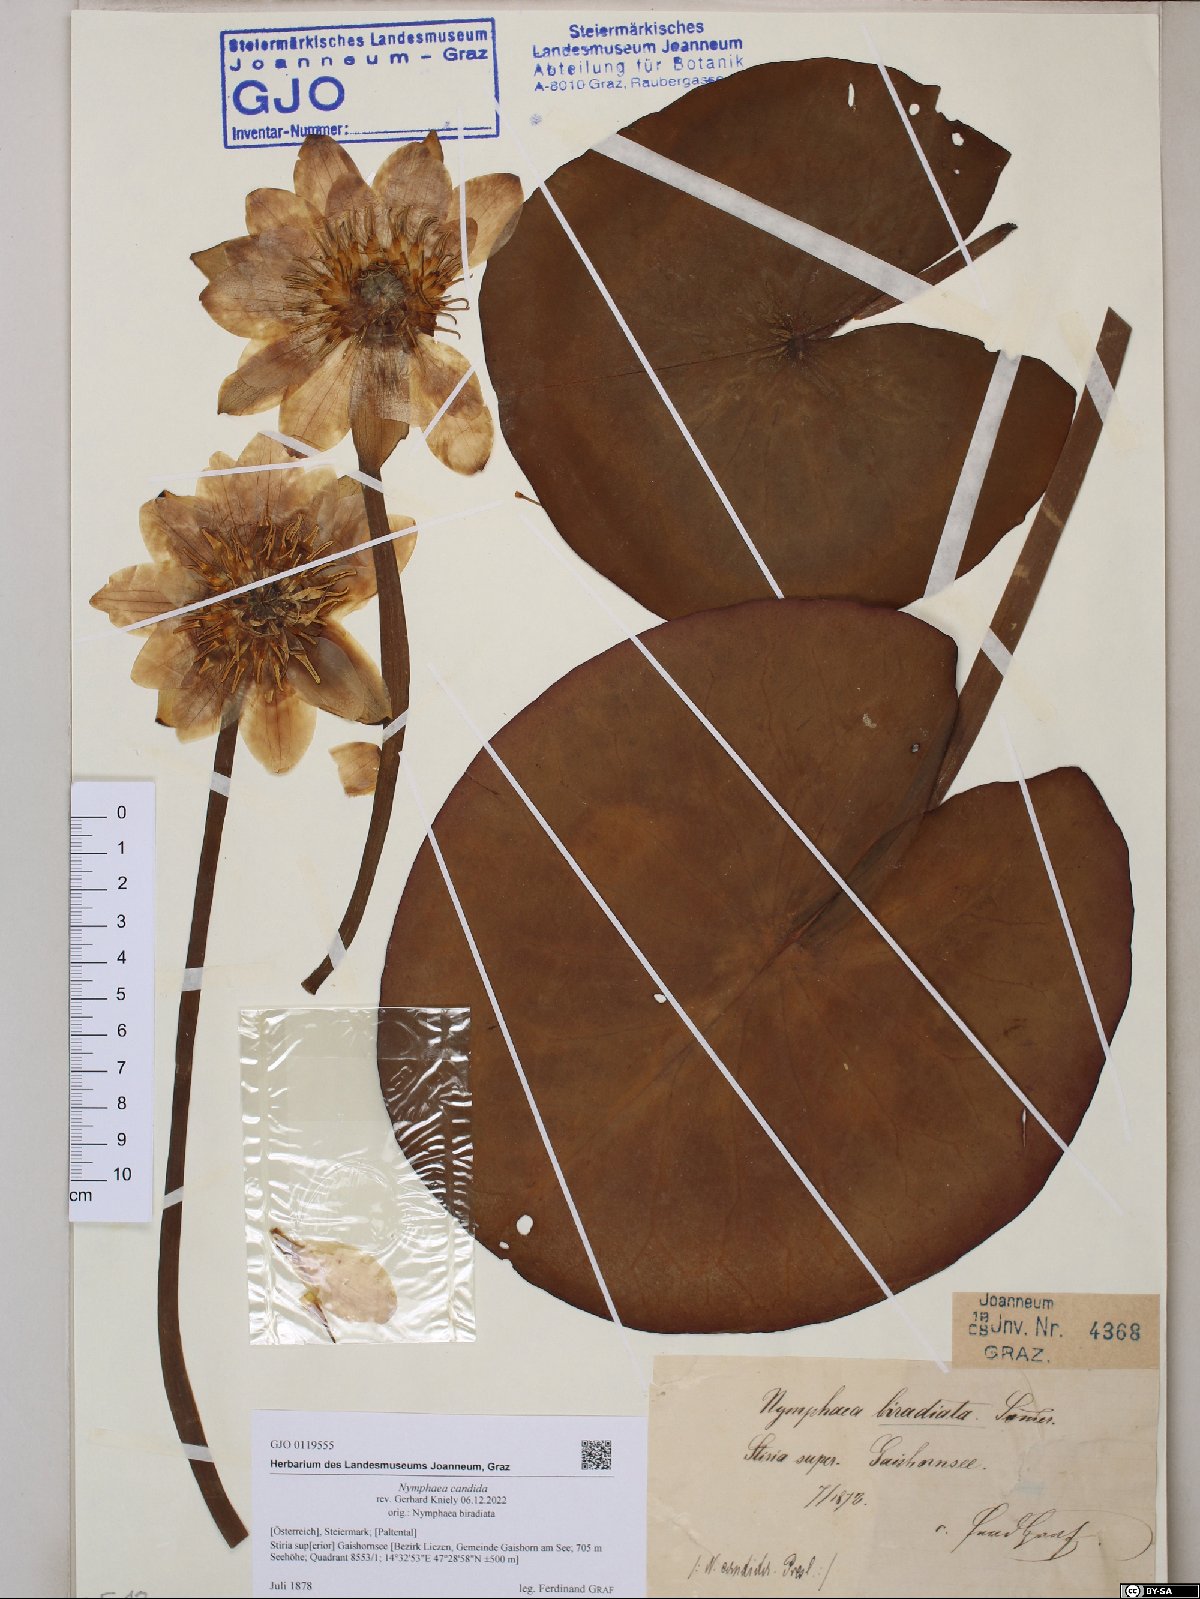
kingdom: Plantae
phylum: Tracheophyta
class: Magnoliopsida
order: Nymphaeales
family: Nymphaeaceae
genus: Nymphaea
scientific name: Nymphaea candida
